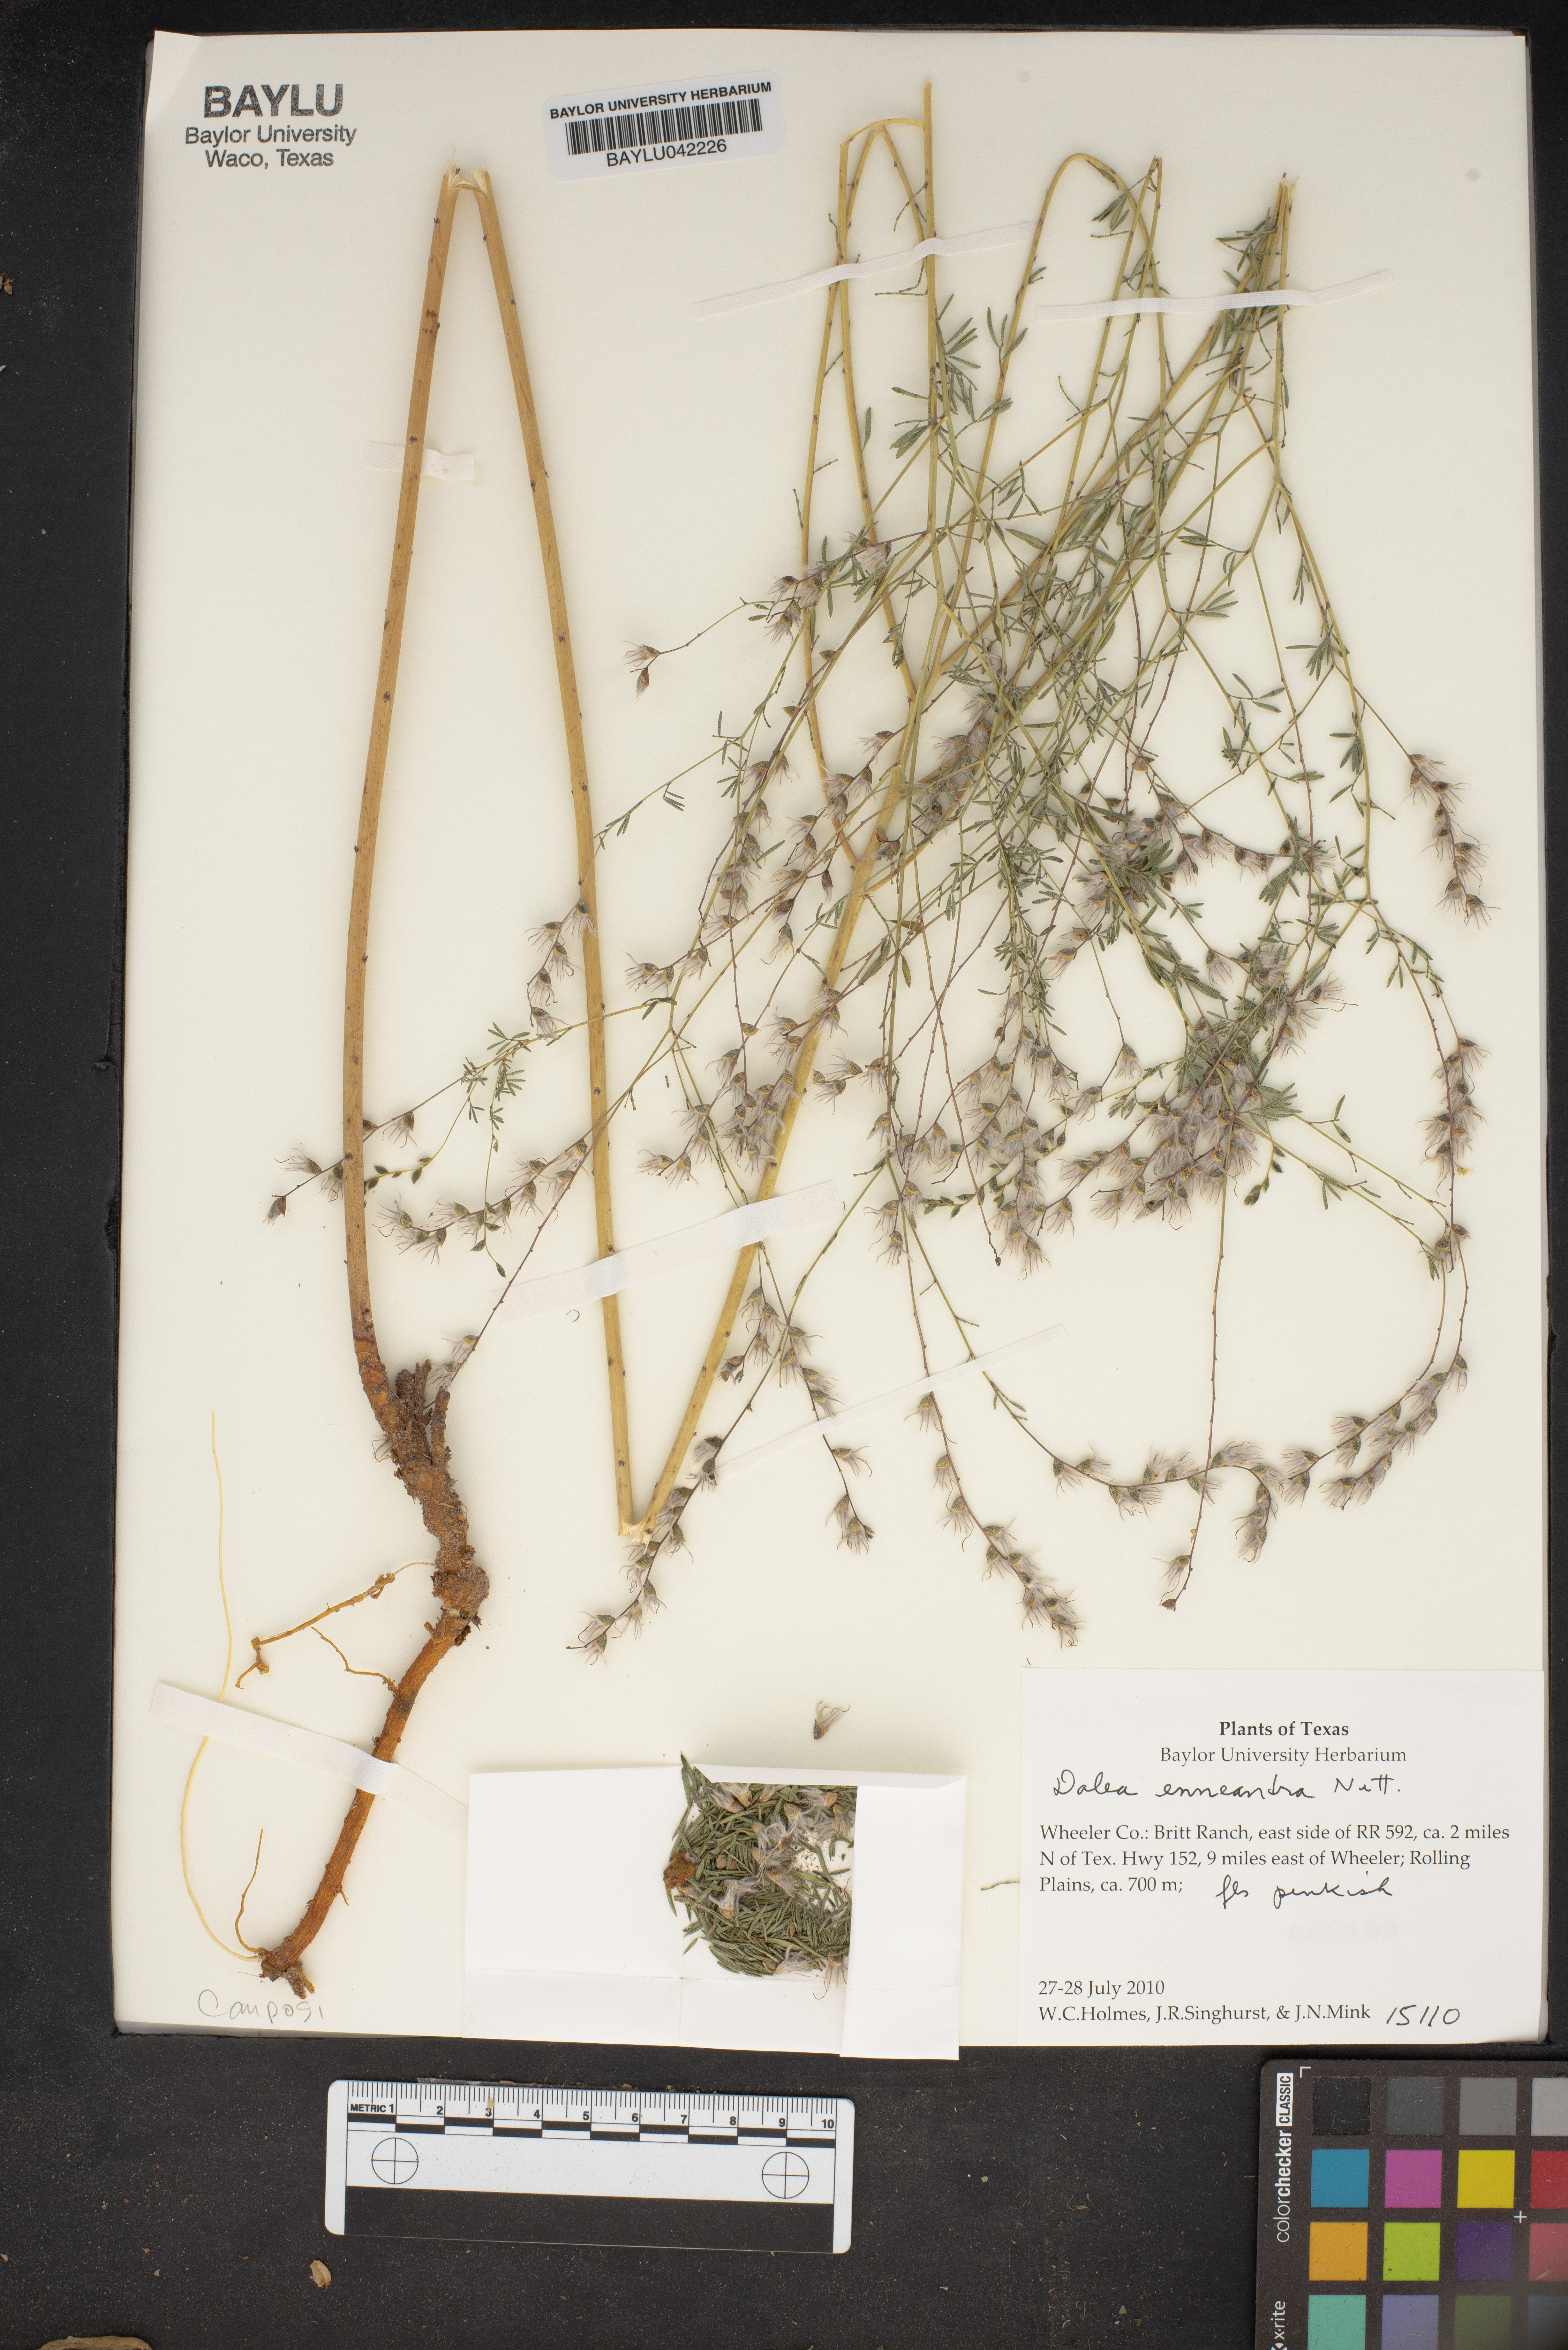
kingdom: Plantae
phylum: Tracheophyta
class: Magnoliopsida
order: Fabales
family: Fabaceae
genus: Dalea
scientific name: Dalea enneandra
